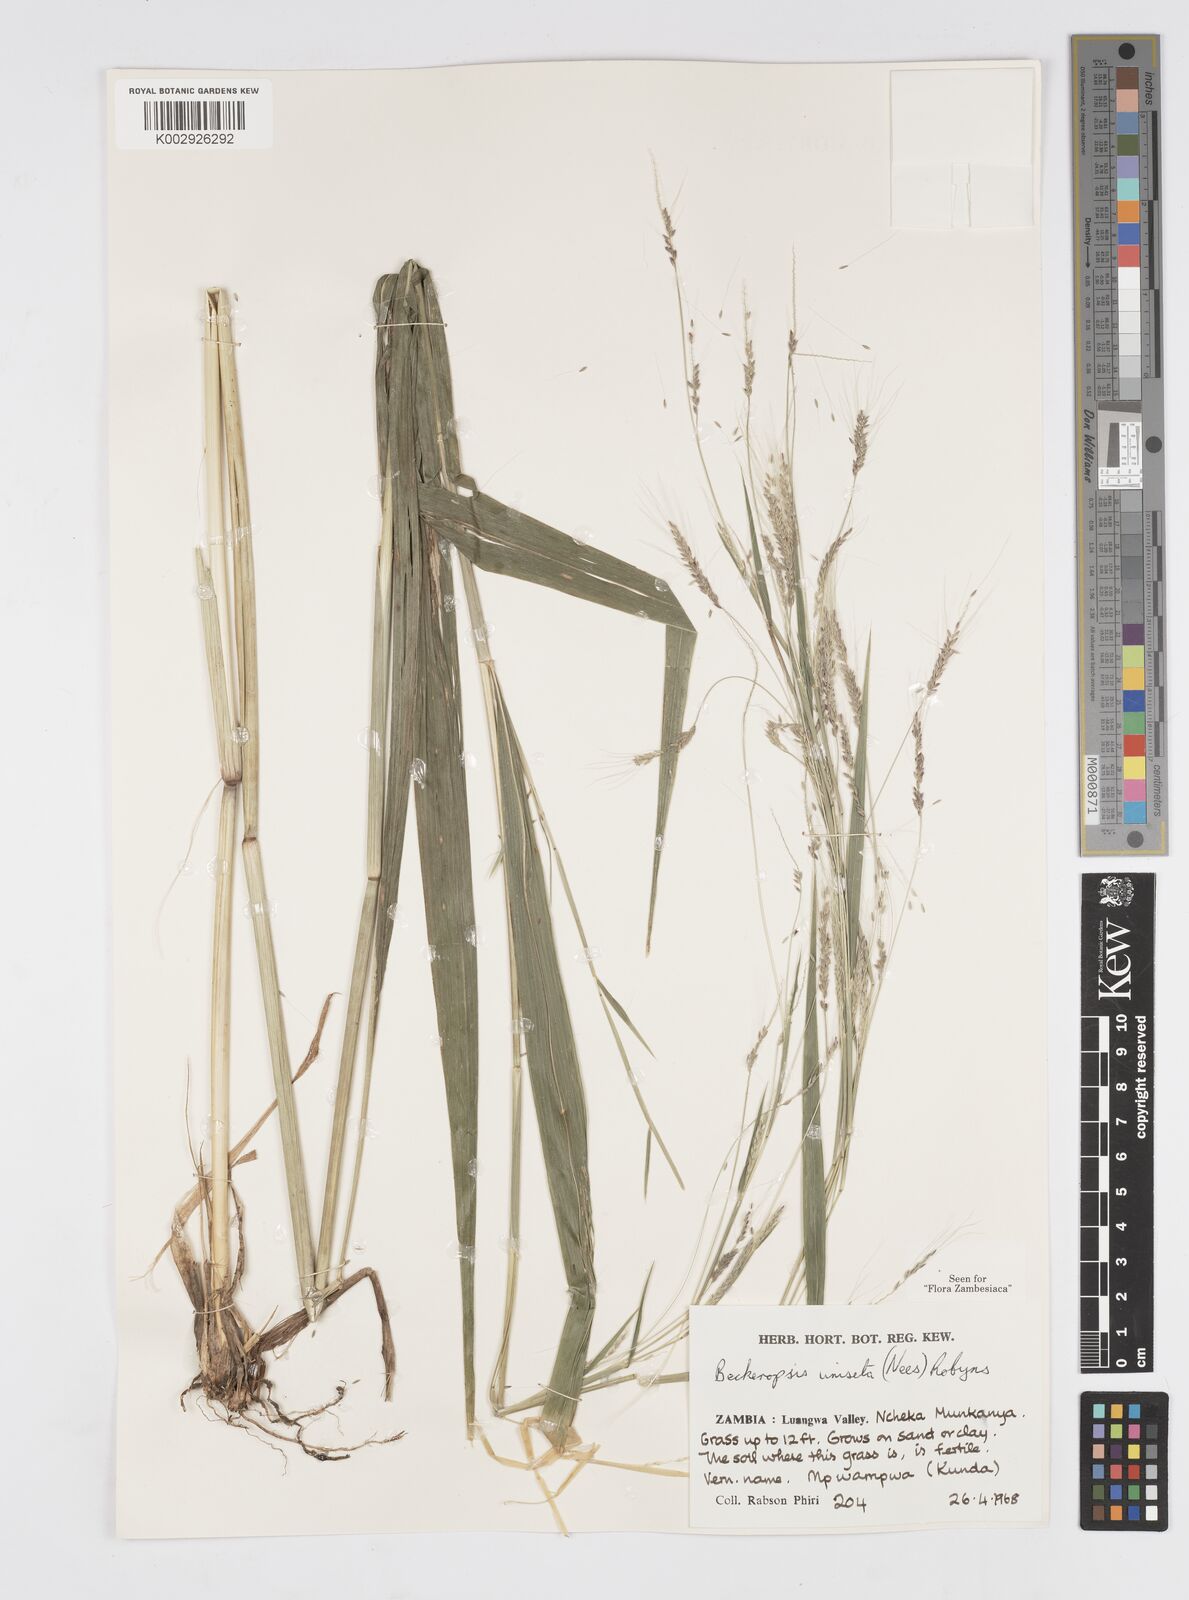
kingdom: Plantae
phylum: Tracheophyta
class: Liliopsida
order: Poales
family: Poaceae
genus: Cenchrus
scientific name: Cenchrus unisetus
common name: Natal grass
